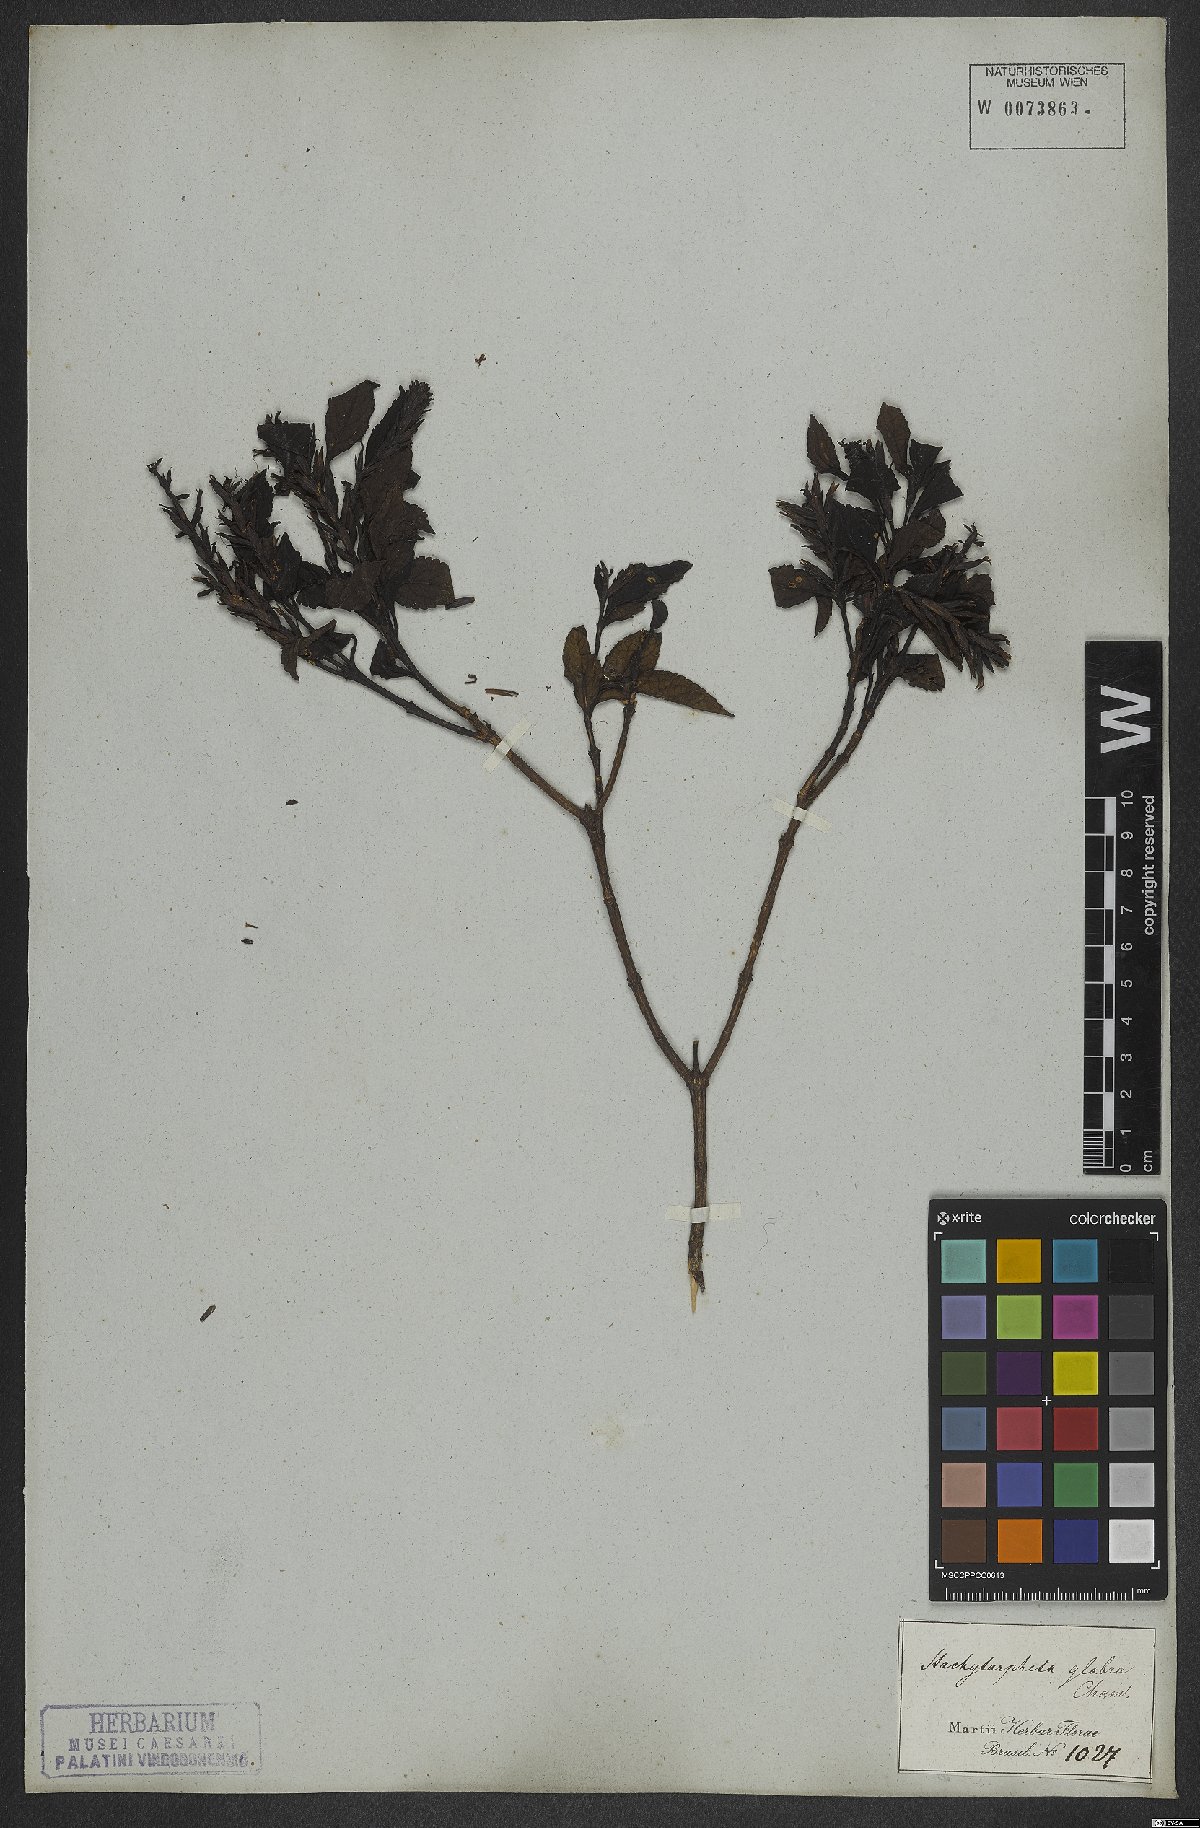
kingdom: Plantae
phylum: Tracheophyta
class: Magnoliopsida
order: Lamiales
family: Verbenaceae
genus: Stachytarpheta
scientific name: Stachytarpheta glabra
